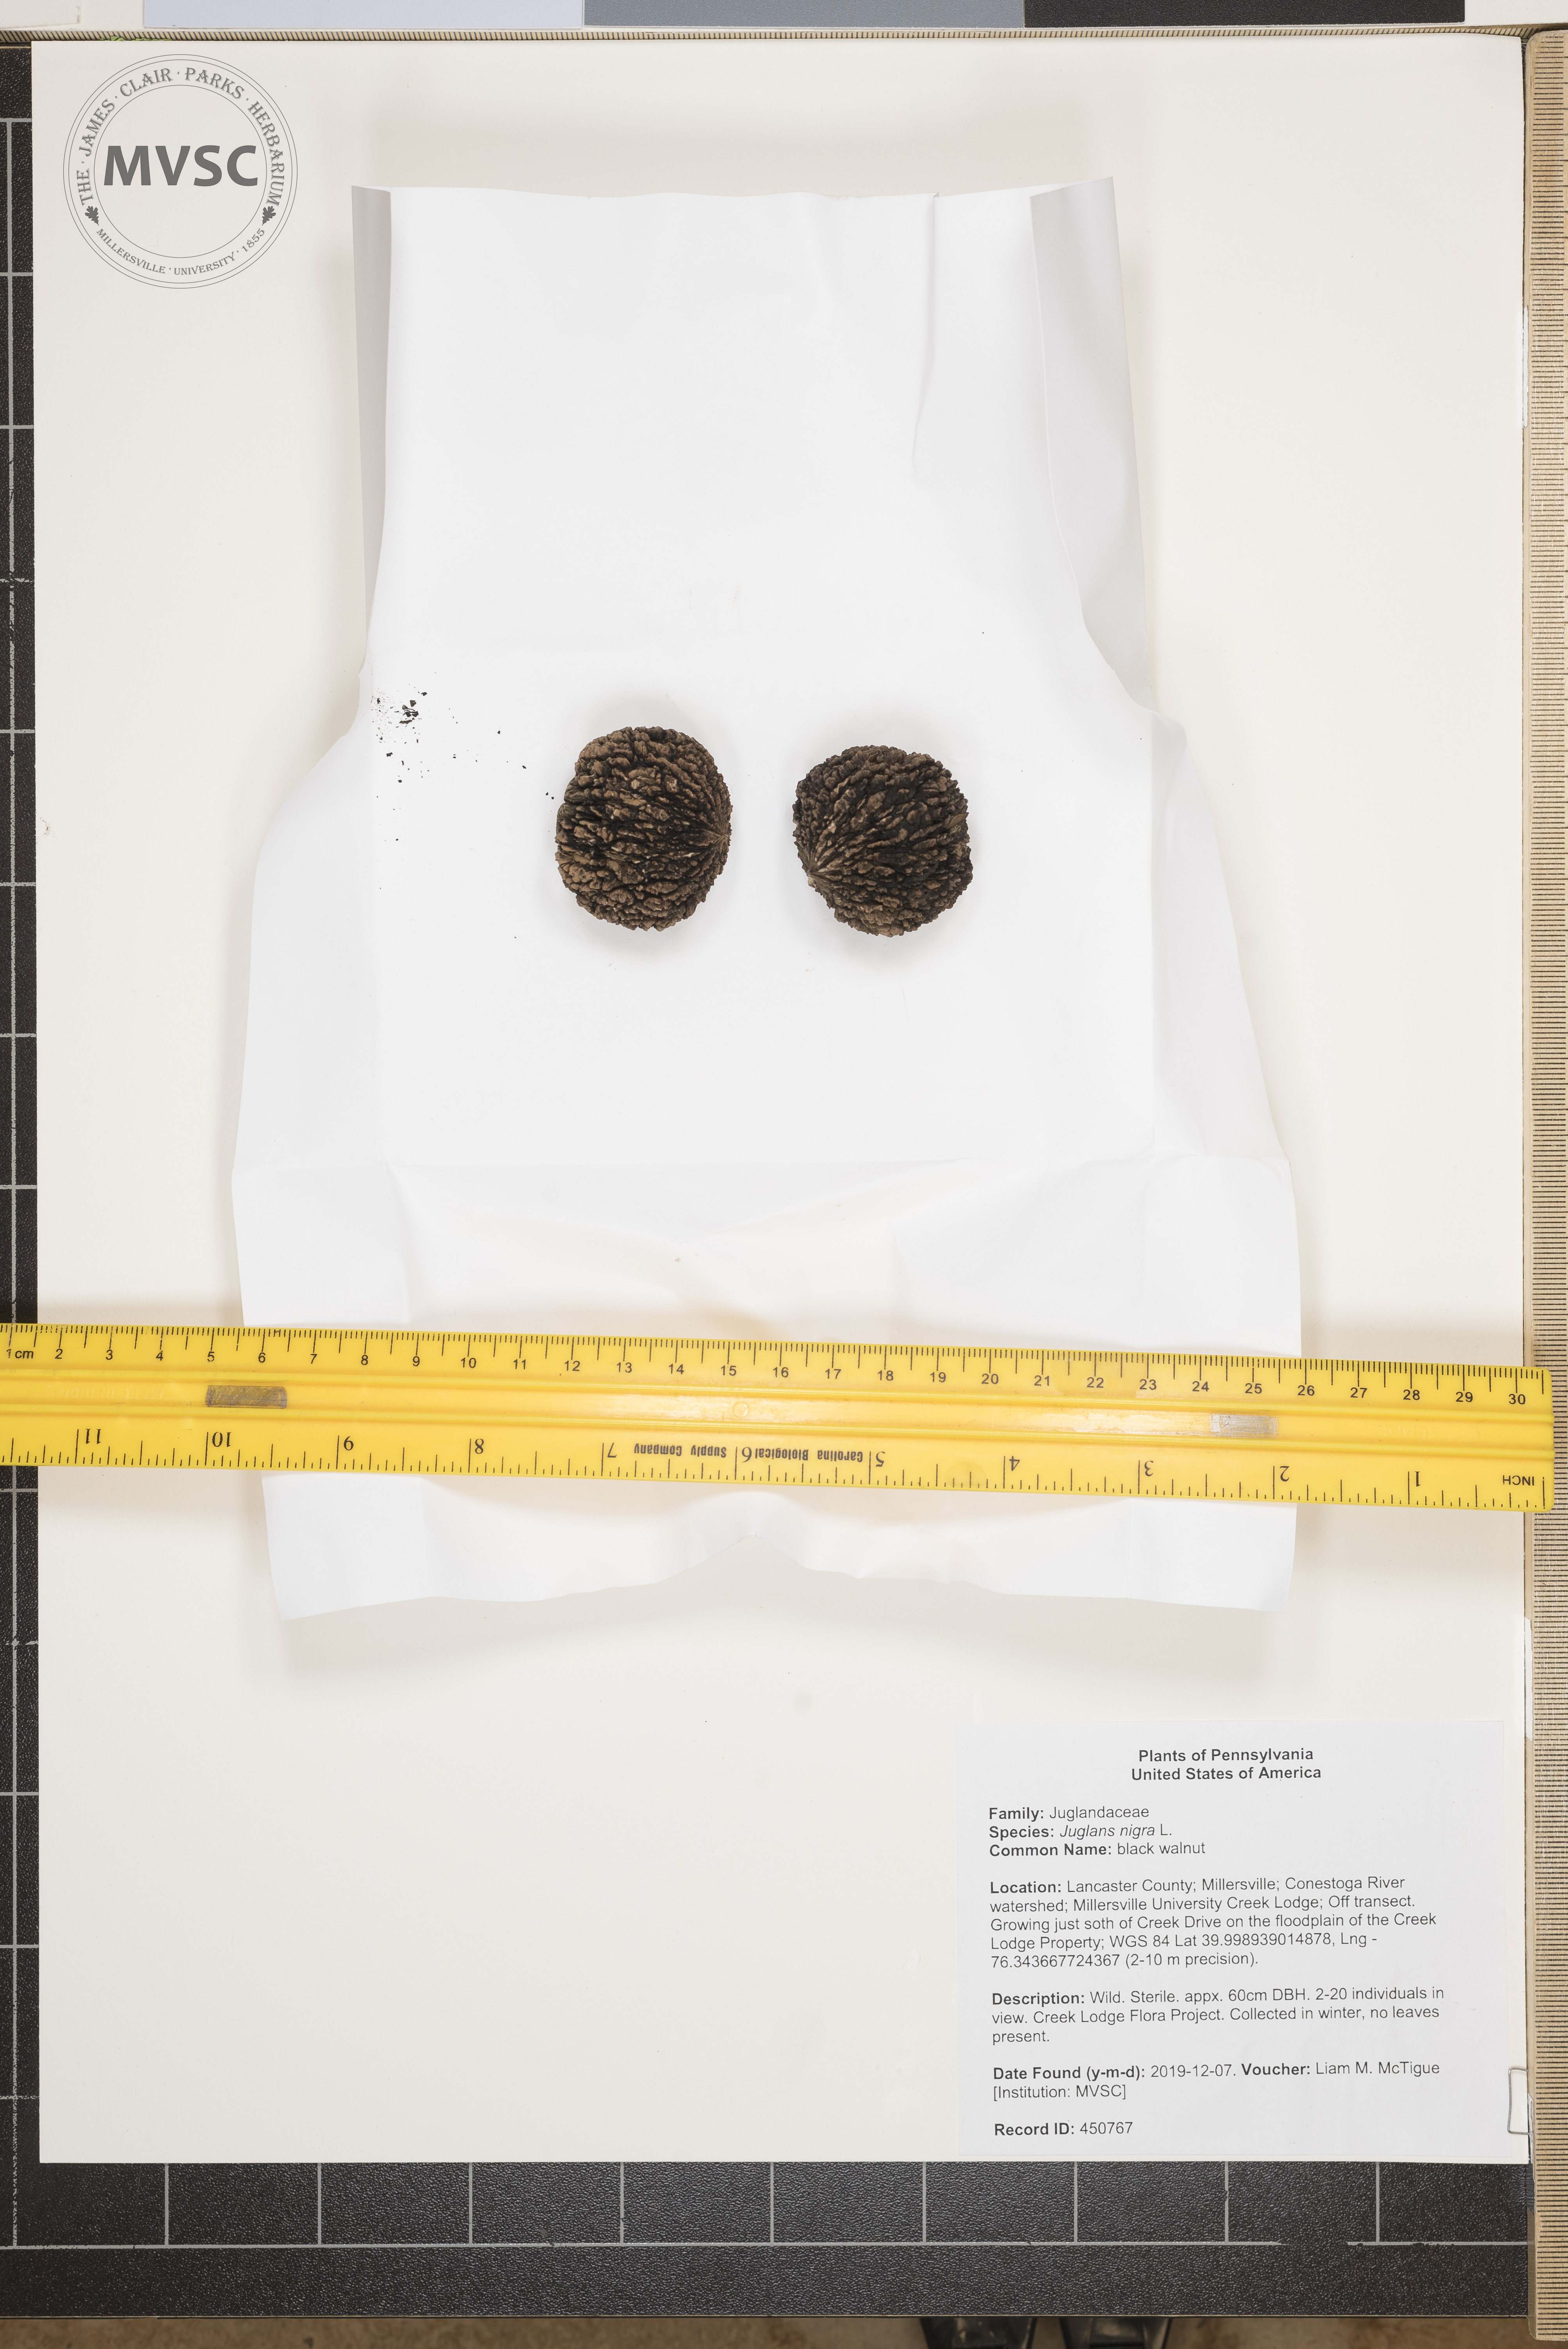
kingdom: Plantae
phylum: Tracheophyta
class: Magnoliopsida
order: Fagales
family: Juglandaceae
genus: Juglans
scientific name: Juglans nigra
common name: black walnut
